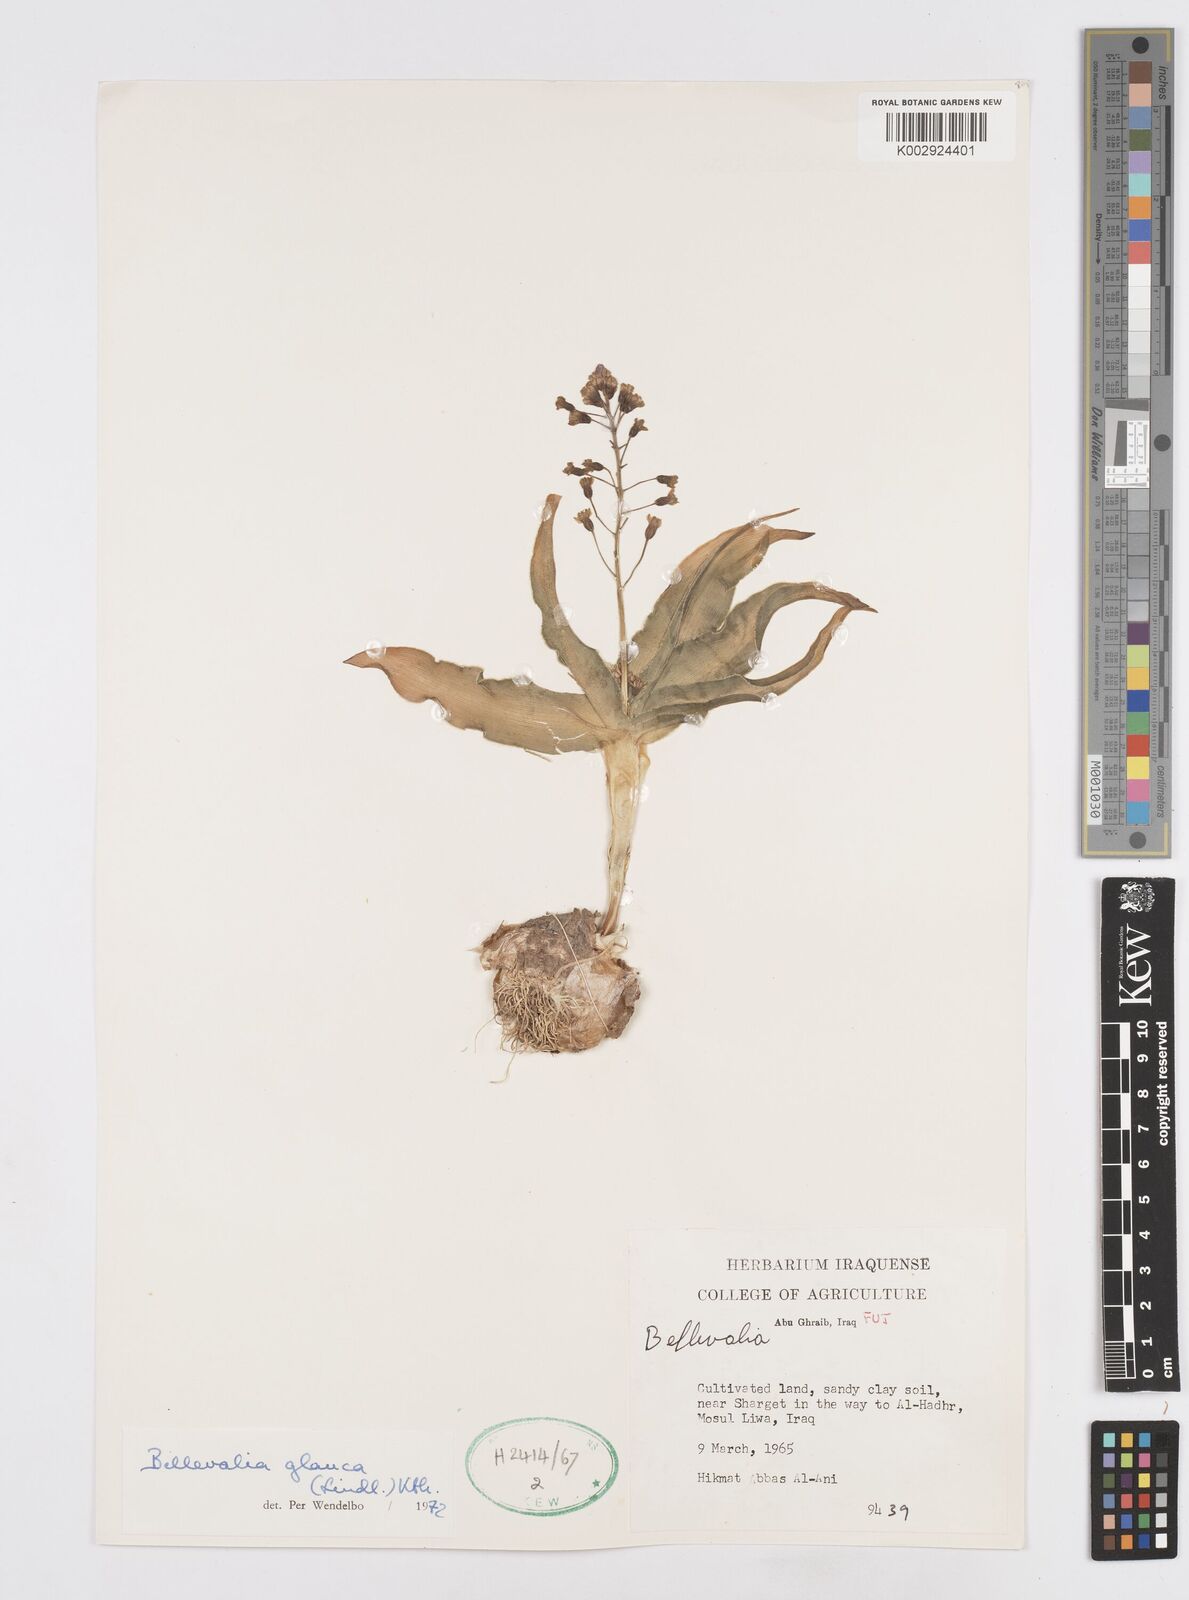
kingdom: Plantae
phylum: Tracheophyta
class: Liliopsida
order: Asparagales
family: Asparagaceae
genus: Bellevalia
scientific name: Bellevalia glauca
